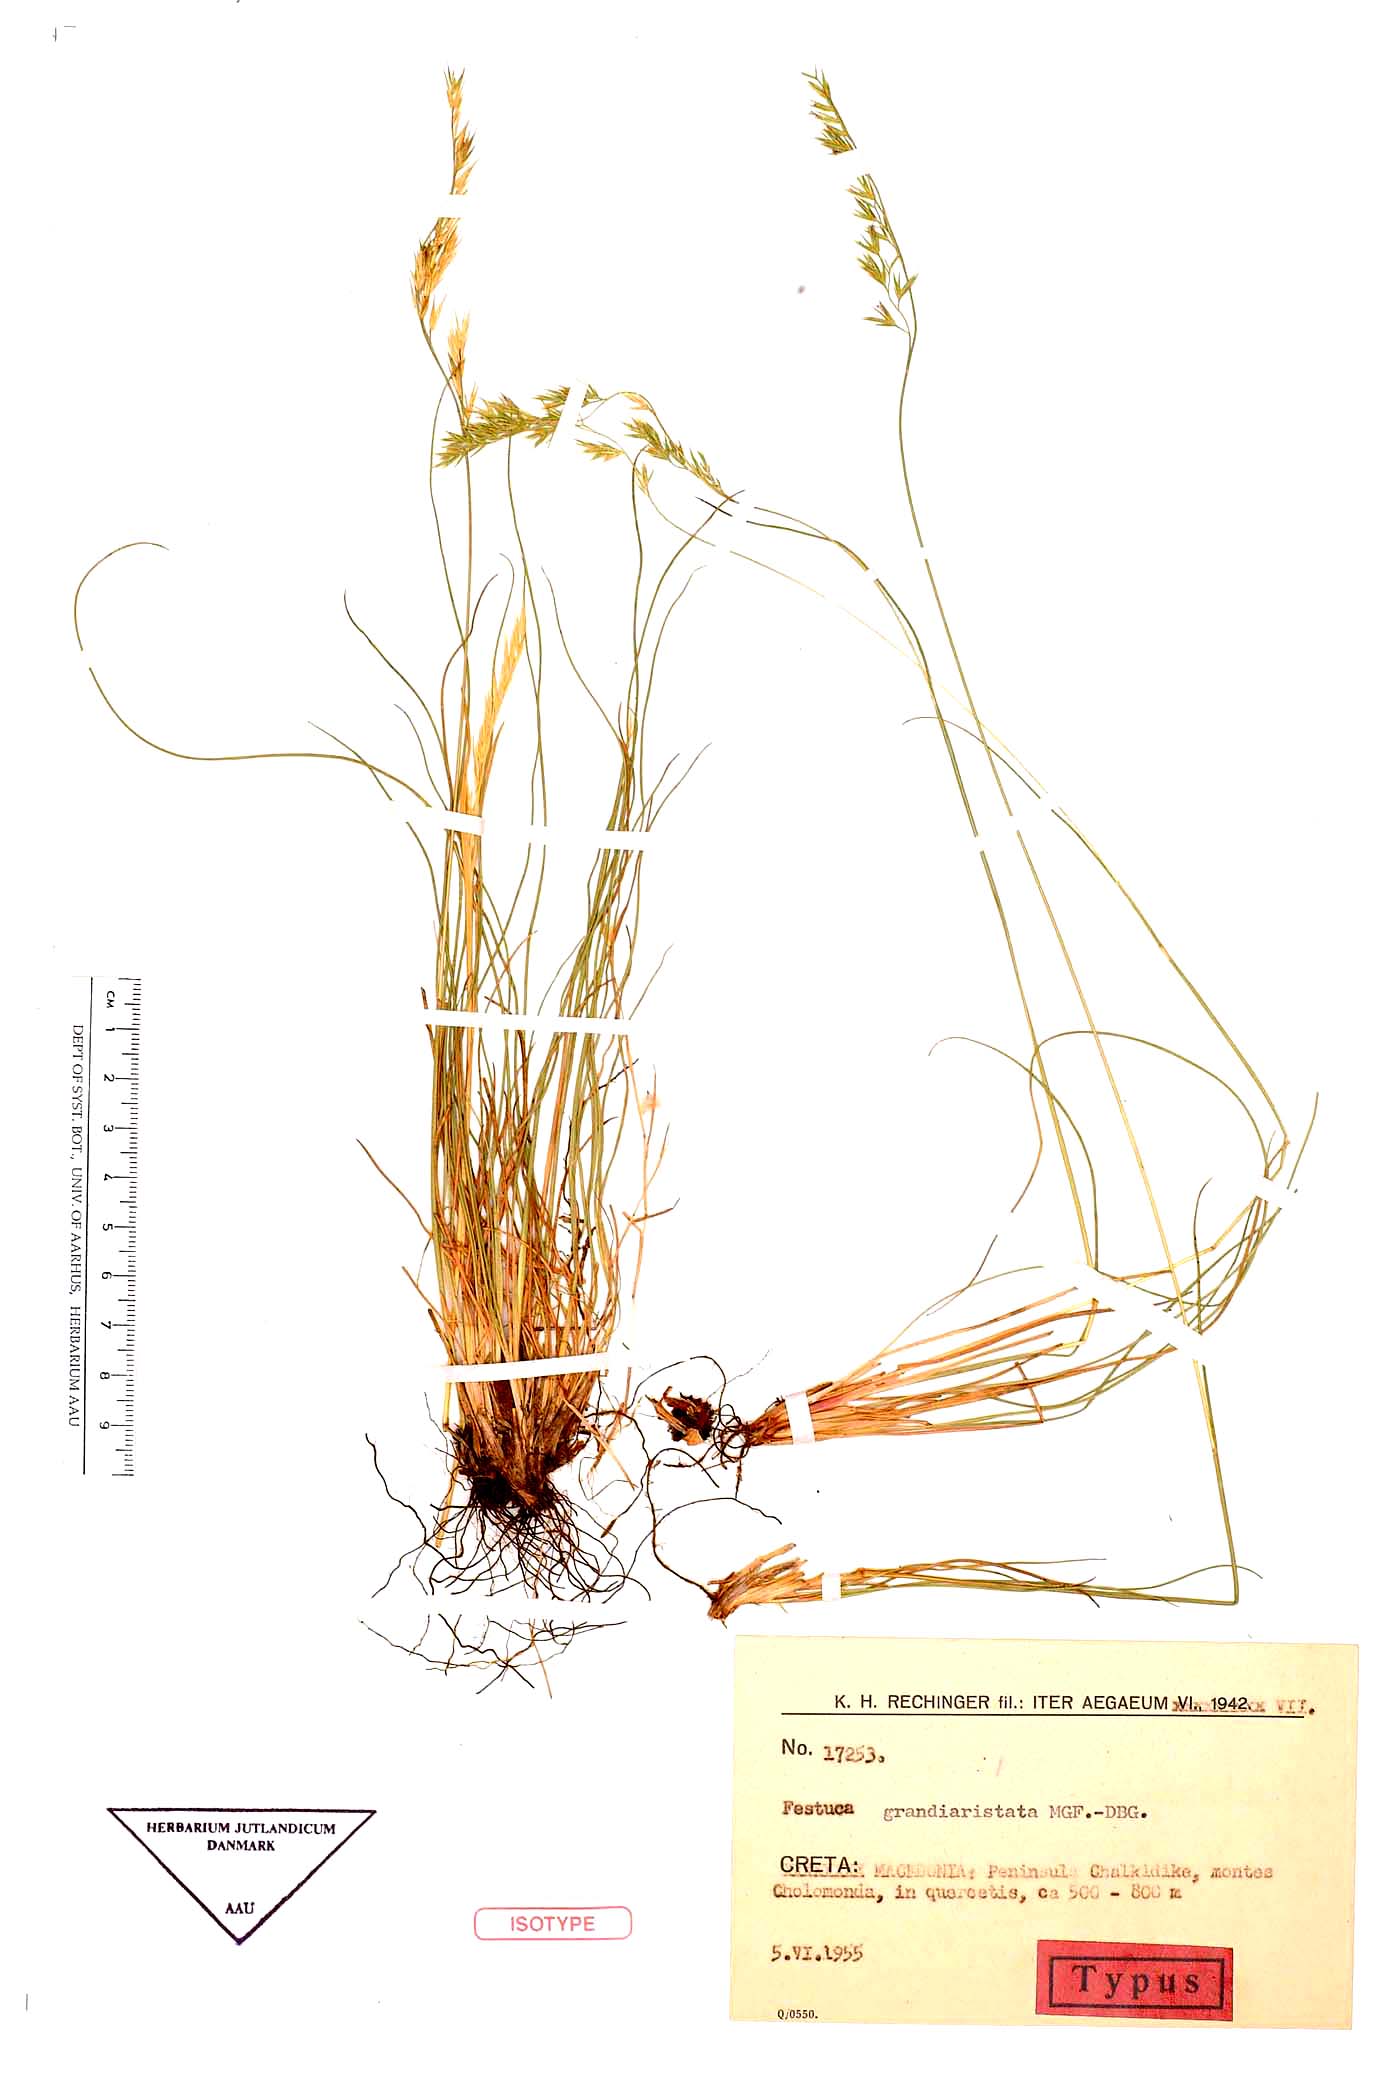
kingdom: Plantae
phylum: Tracheophyta
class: Liliopsida
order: Poales
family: Poaceae
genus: Festuca
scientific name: Festuca grandiaristata
